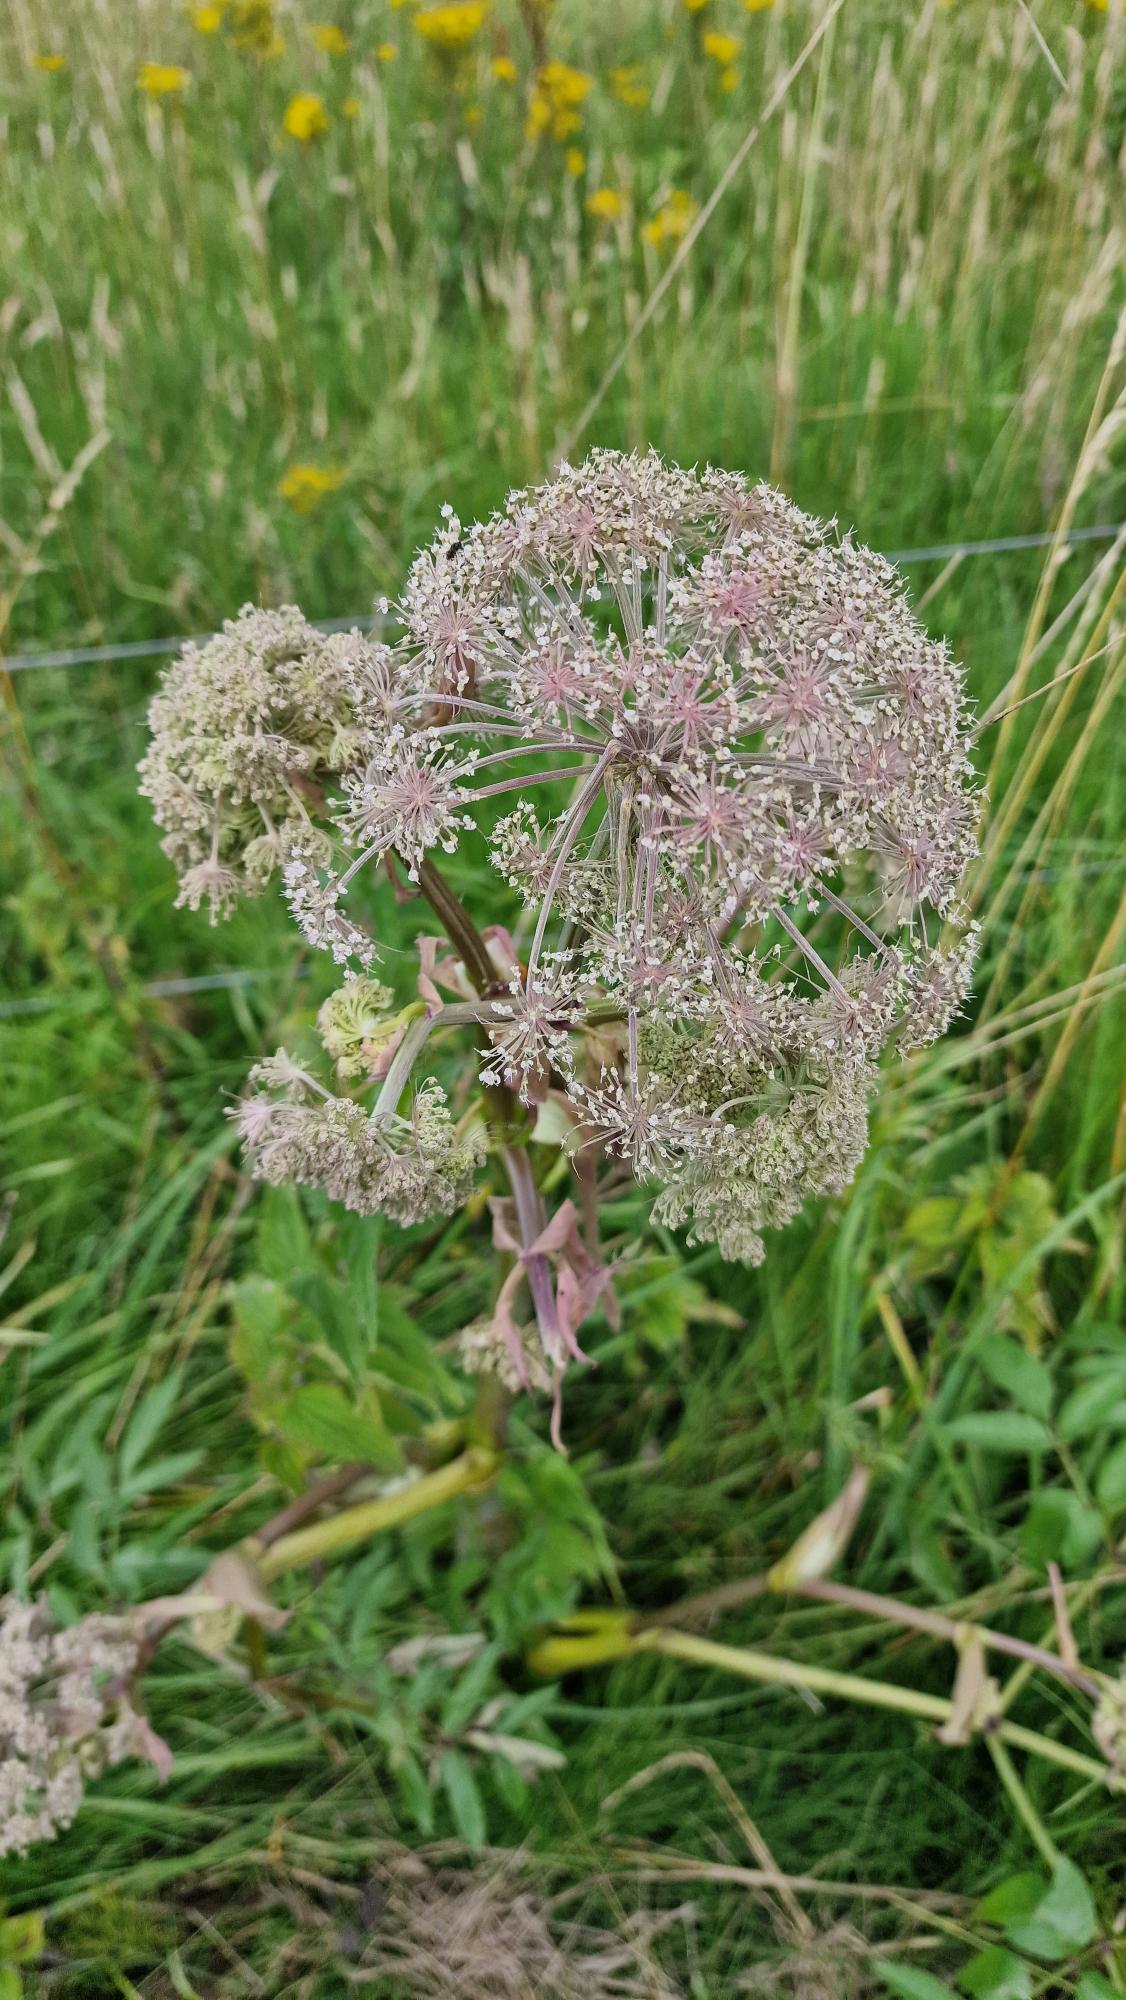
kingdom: Plantae
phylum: Tracheophyta
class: Magnoliopsida
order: Apiales
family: Apiaceae
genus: Angelica
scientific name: Angelica sylvestris
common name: Angelik
